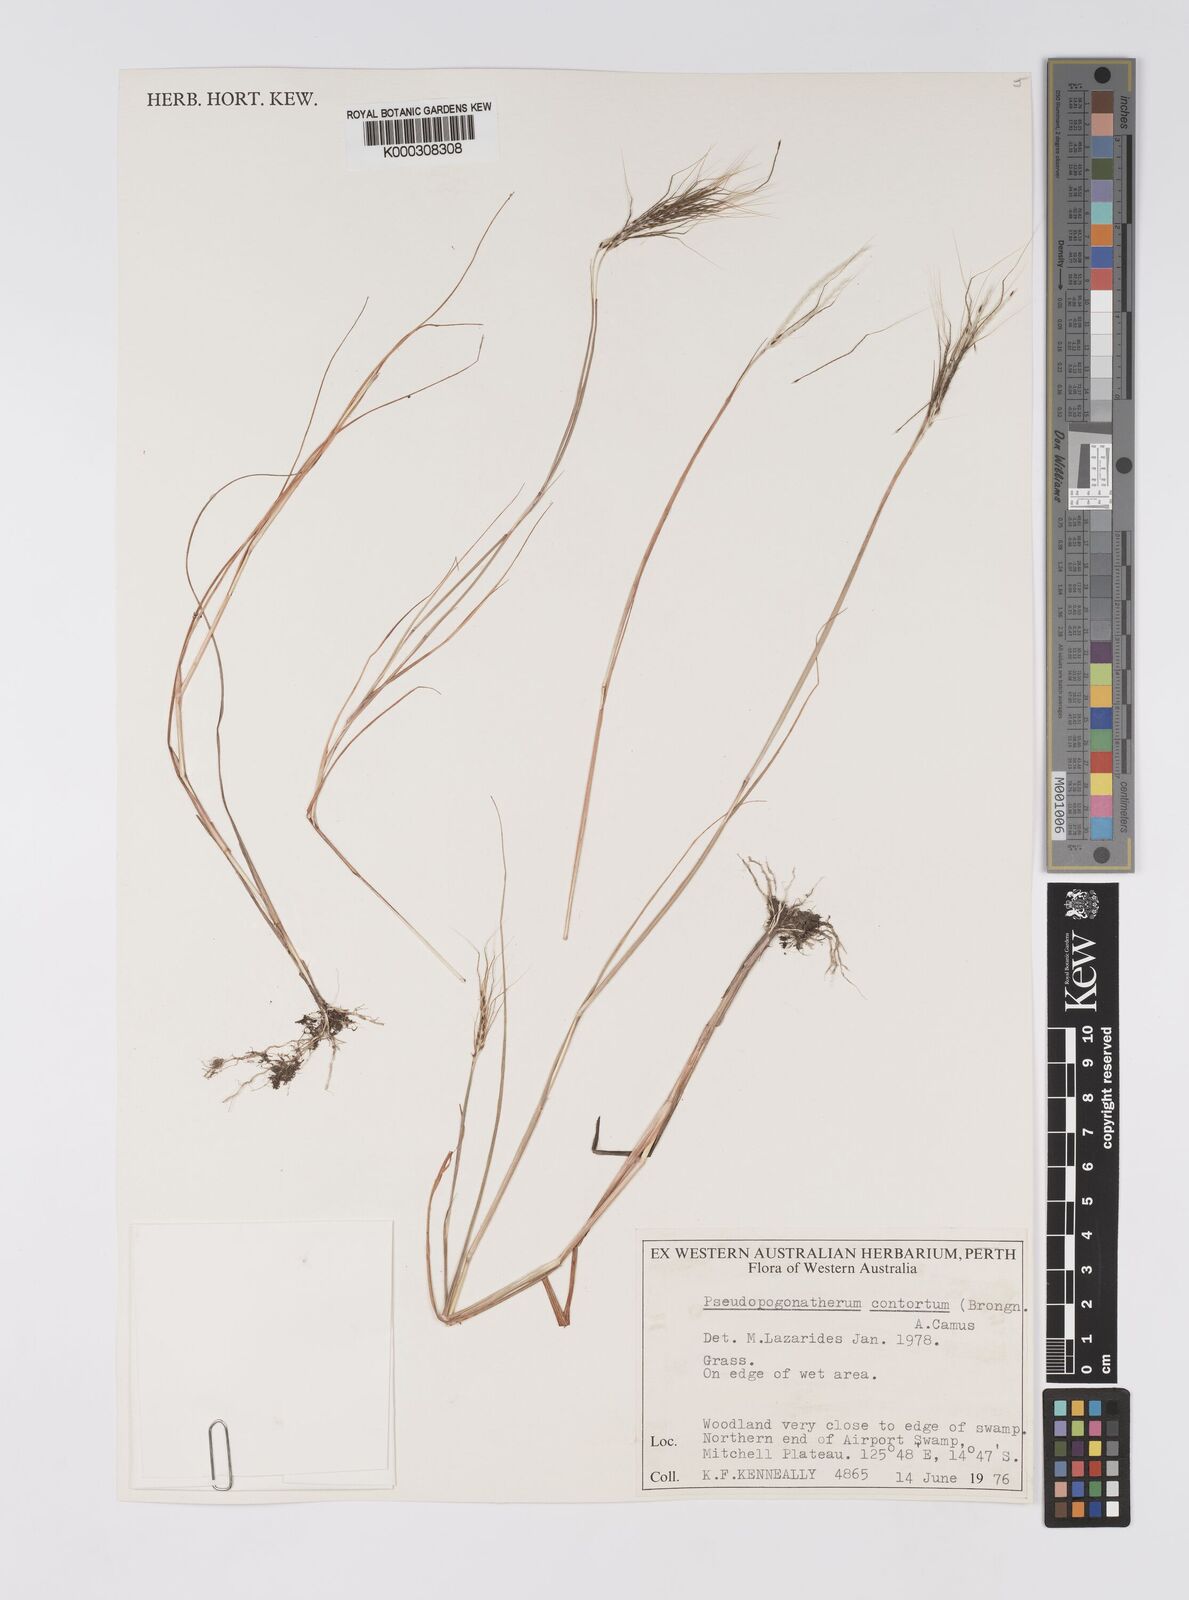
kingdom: Plantae
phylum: Tracheophyta
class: Liliopsida
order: Poales
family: Poaceae
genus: Eulalia
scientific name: Eulalia
